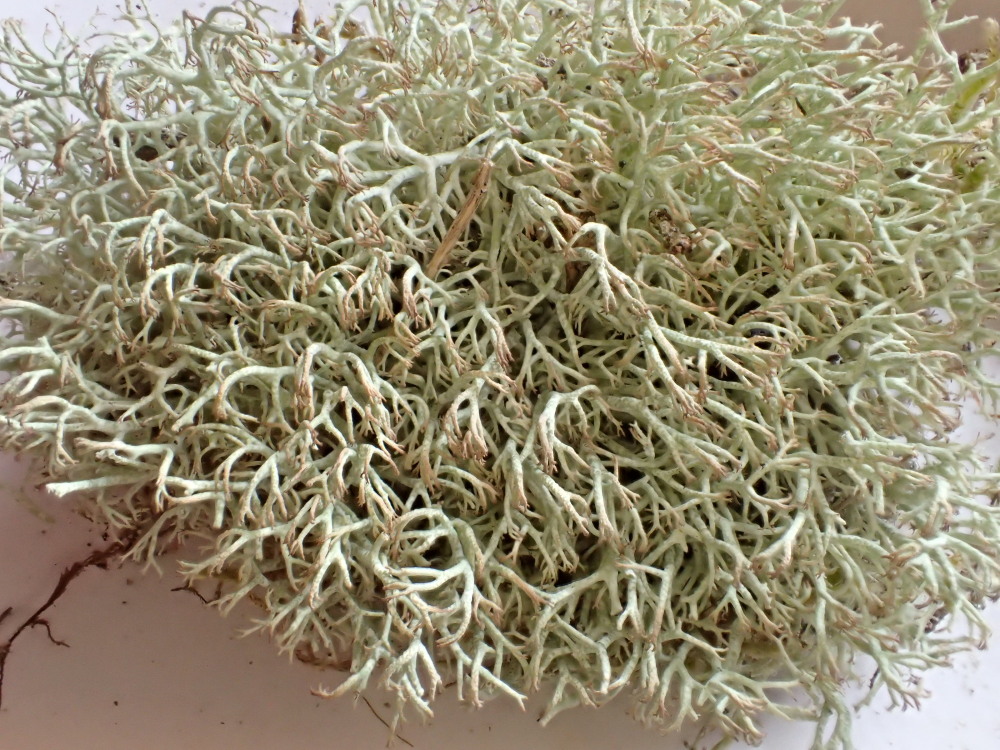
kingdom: Fungi
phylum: Ascomycota
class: Lecanoromycetes
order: Lecanorales
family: Cladoniaceae
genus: Cladonia
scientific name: Cladonia ciliata
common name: spinkel rensdyrlav
